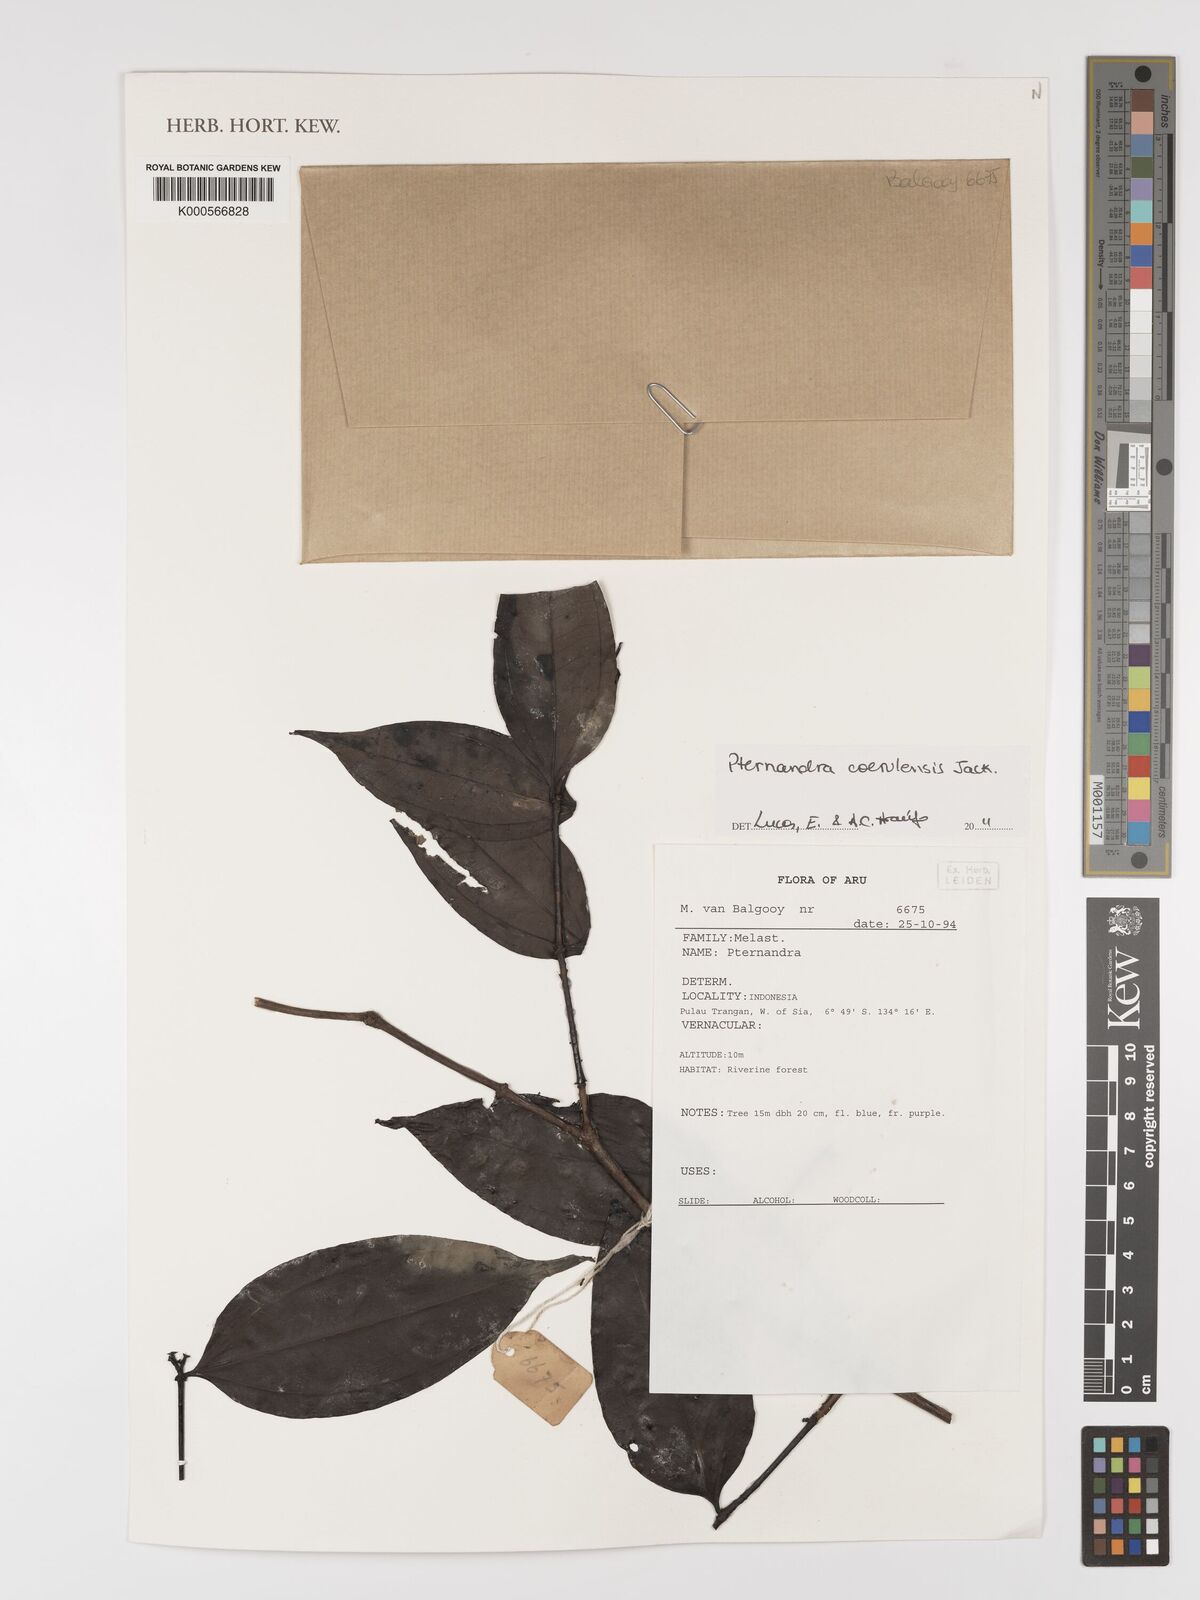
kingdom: Plantae
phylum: Tracheophyta
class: Magnoliopsida
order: Myrtales
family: Melastomataceae
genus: Pternandra
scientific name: Pternandra
